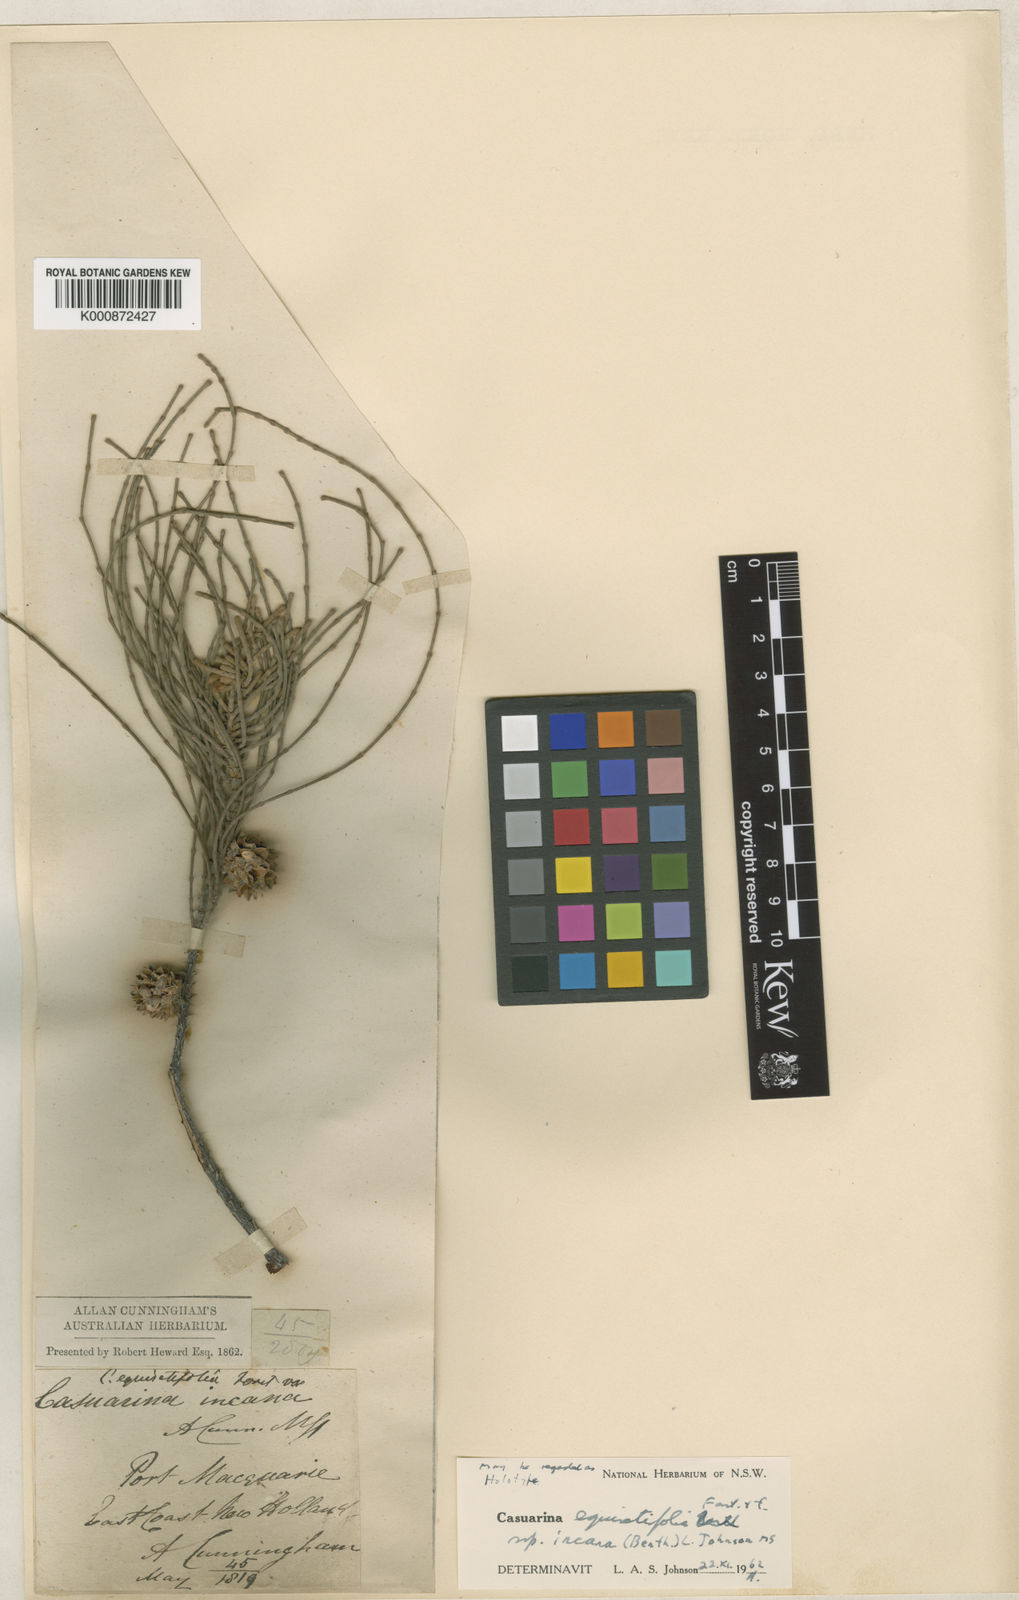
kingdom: Plantae
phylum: Tracheophyta
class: Magnoliopsida
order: Fagales
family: Casuarinaceae
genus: Casuarina
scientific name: Casuarina equisetifolia
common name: Beach sheoak
